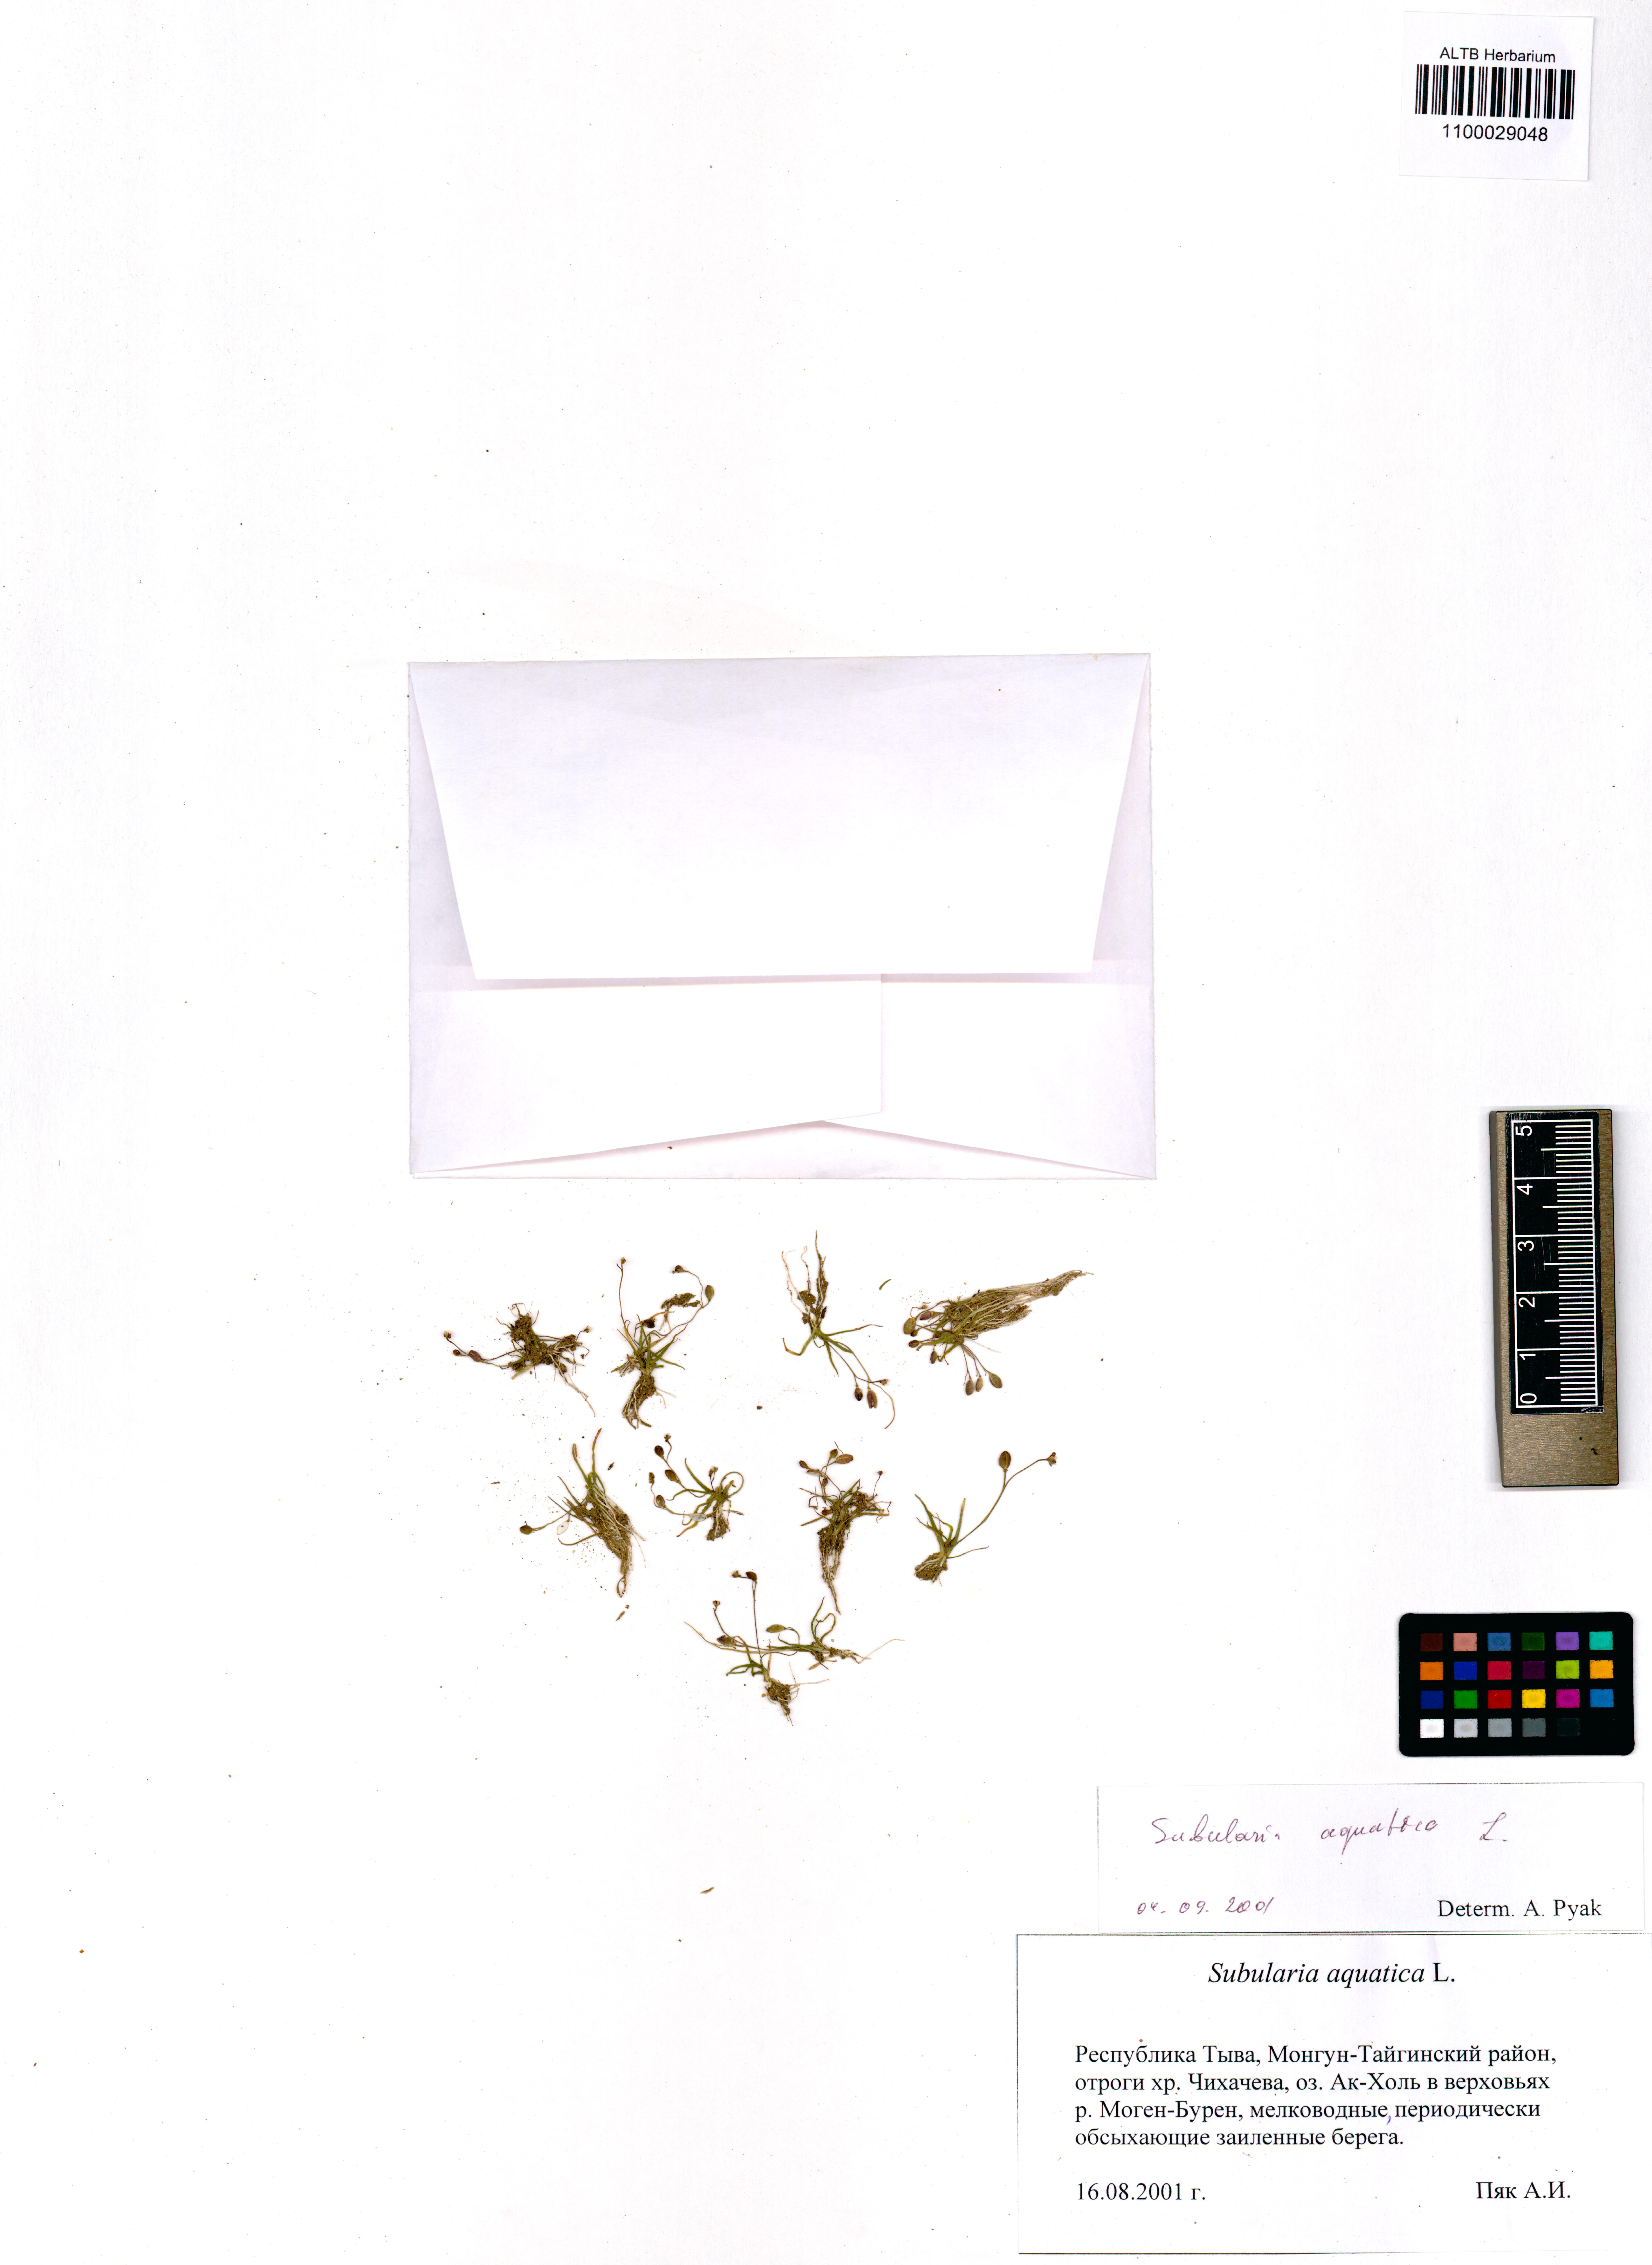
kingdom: Plantae
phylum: Tracheophyta
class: Magnoliopsida
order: Brassicales
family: Brassicaceae
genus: Subularia
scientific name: Subularia aquatica
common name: Awlwort
